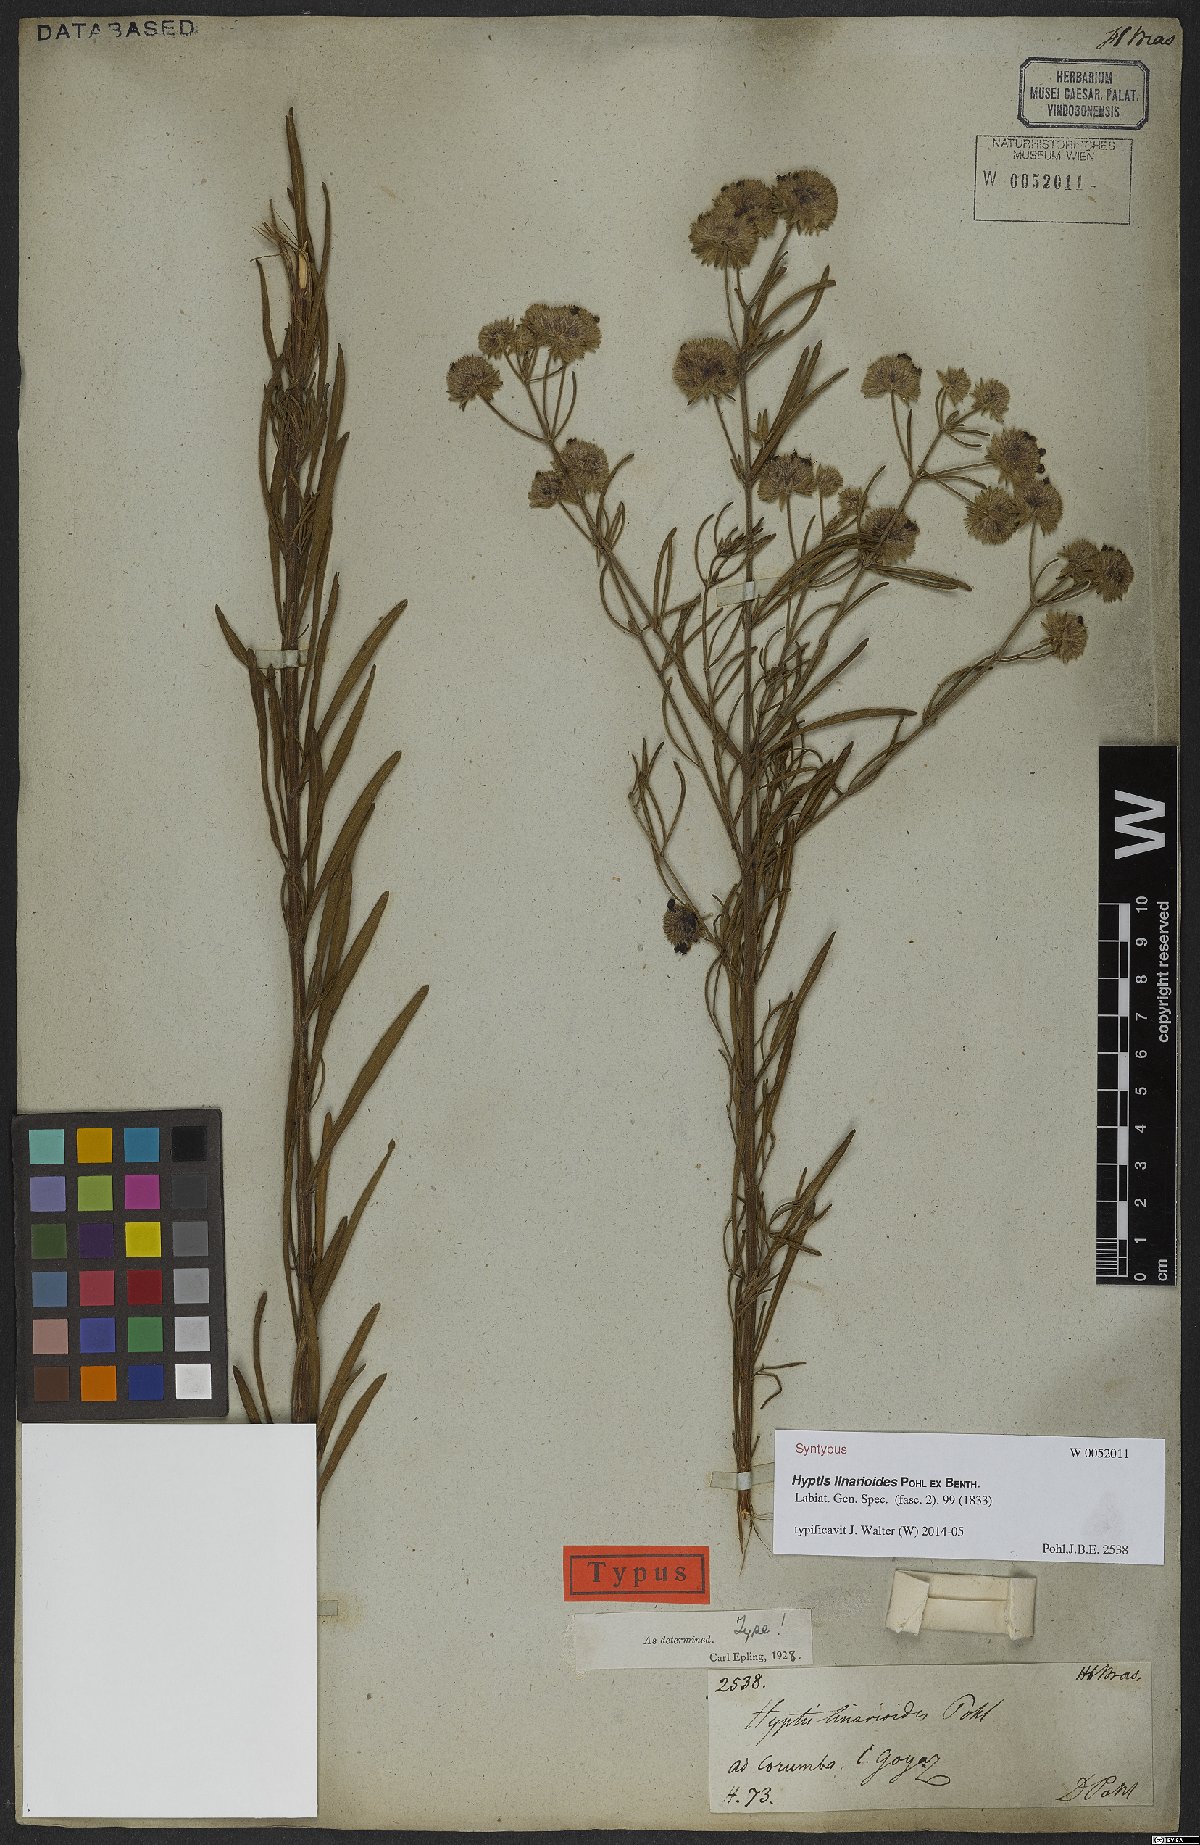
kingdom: Plantae
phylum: Tracheophyta
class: Magnoliopsida
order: Lamiales
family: Lamiaceae
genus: Hyptis
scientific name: Hyptis linarioides
